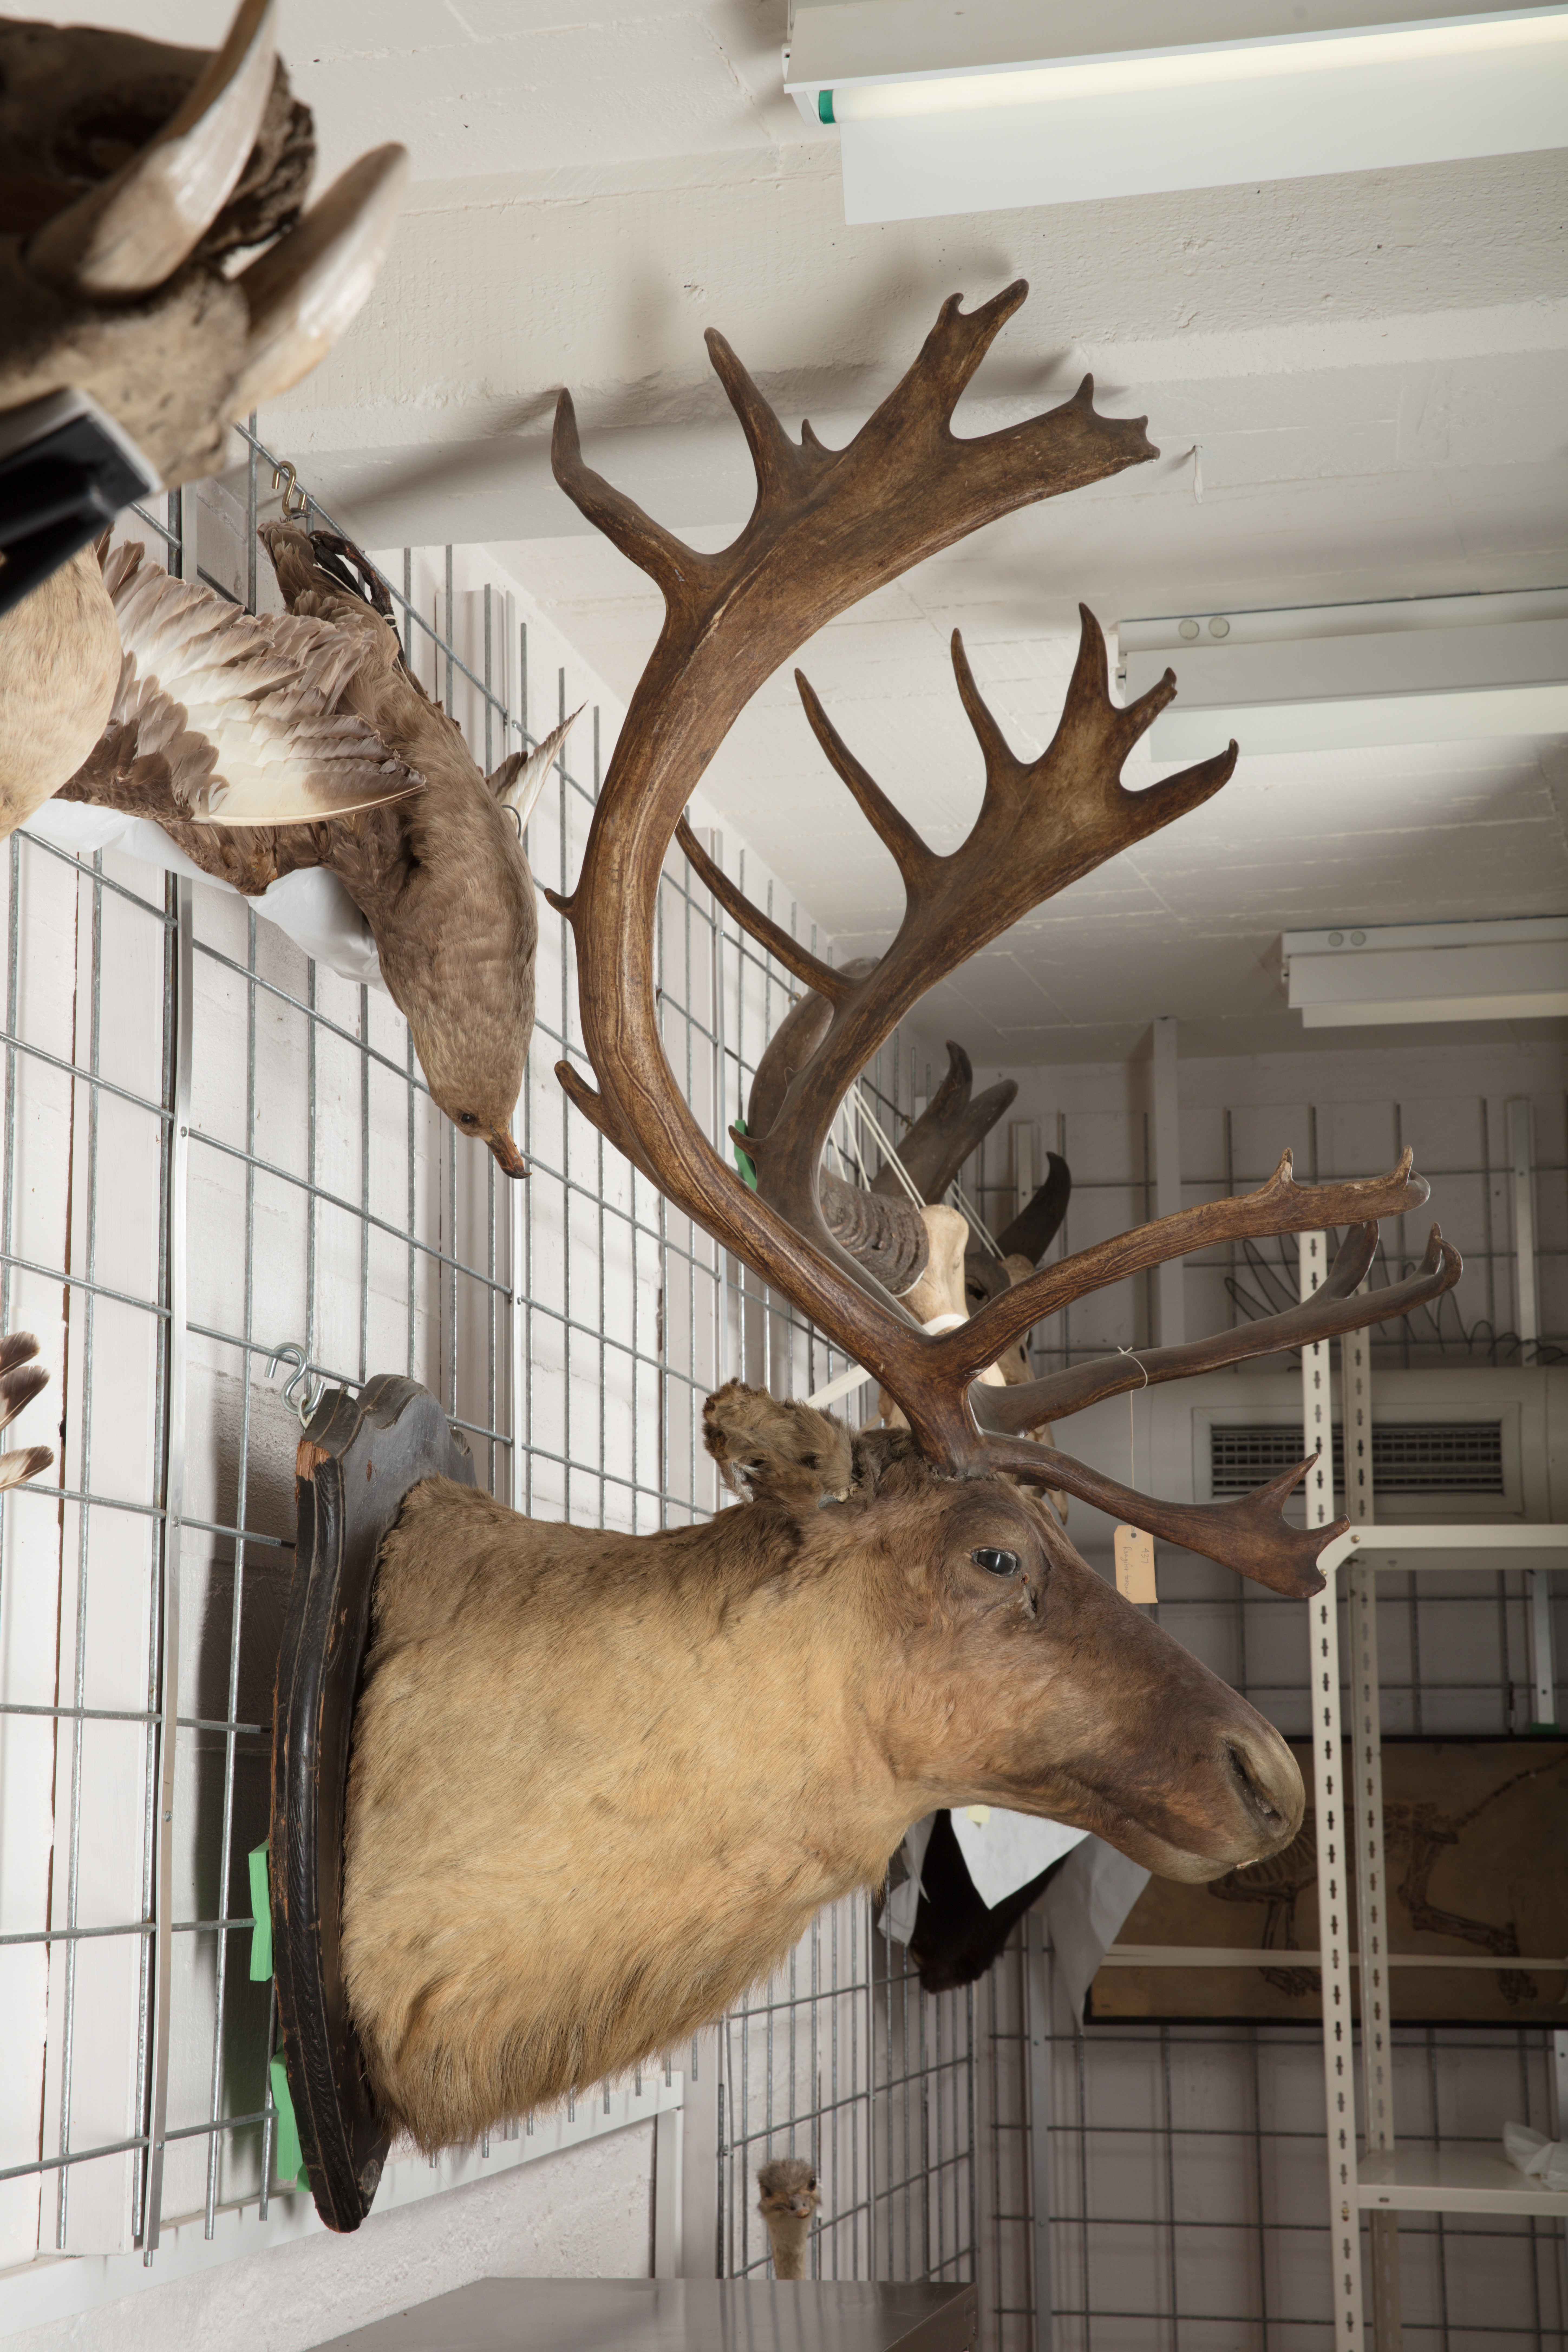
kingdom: Animalia
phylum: Chordata
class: Mammalia
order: Artiodactyla
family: Cervidae
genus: Rangifer
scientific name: Rangifer tarandus
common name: Reindeer
